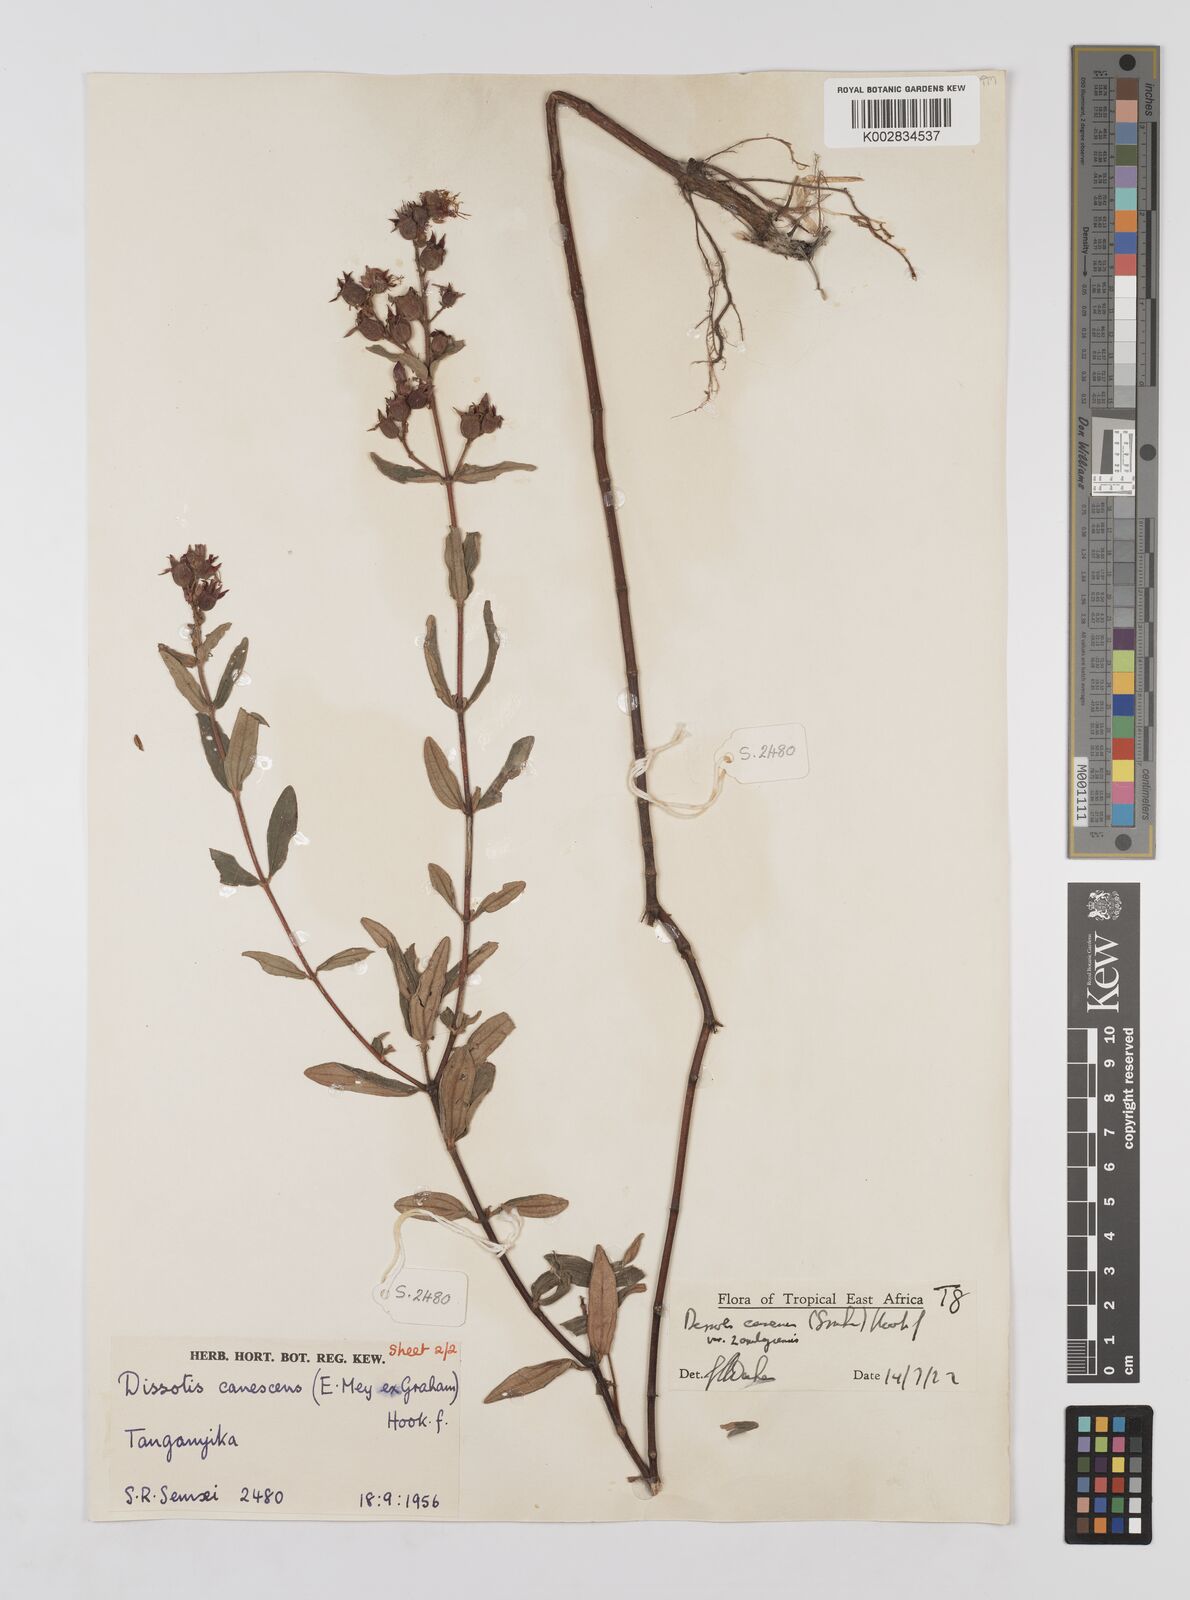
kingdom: Plantae
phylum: Tracheophyta
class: Magnoliopsida
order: Myrtales
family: Melastomataceae
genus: Argyrella
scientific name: Argyrella canescens
